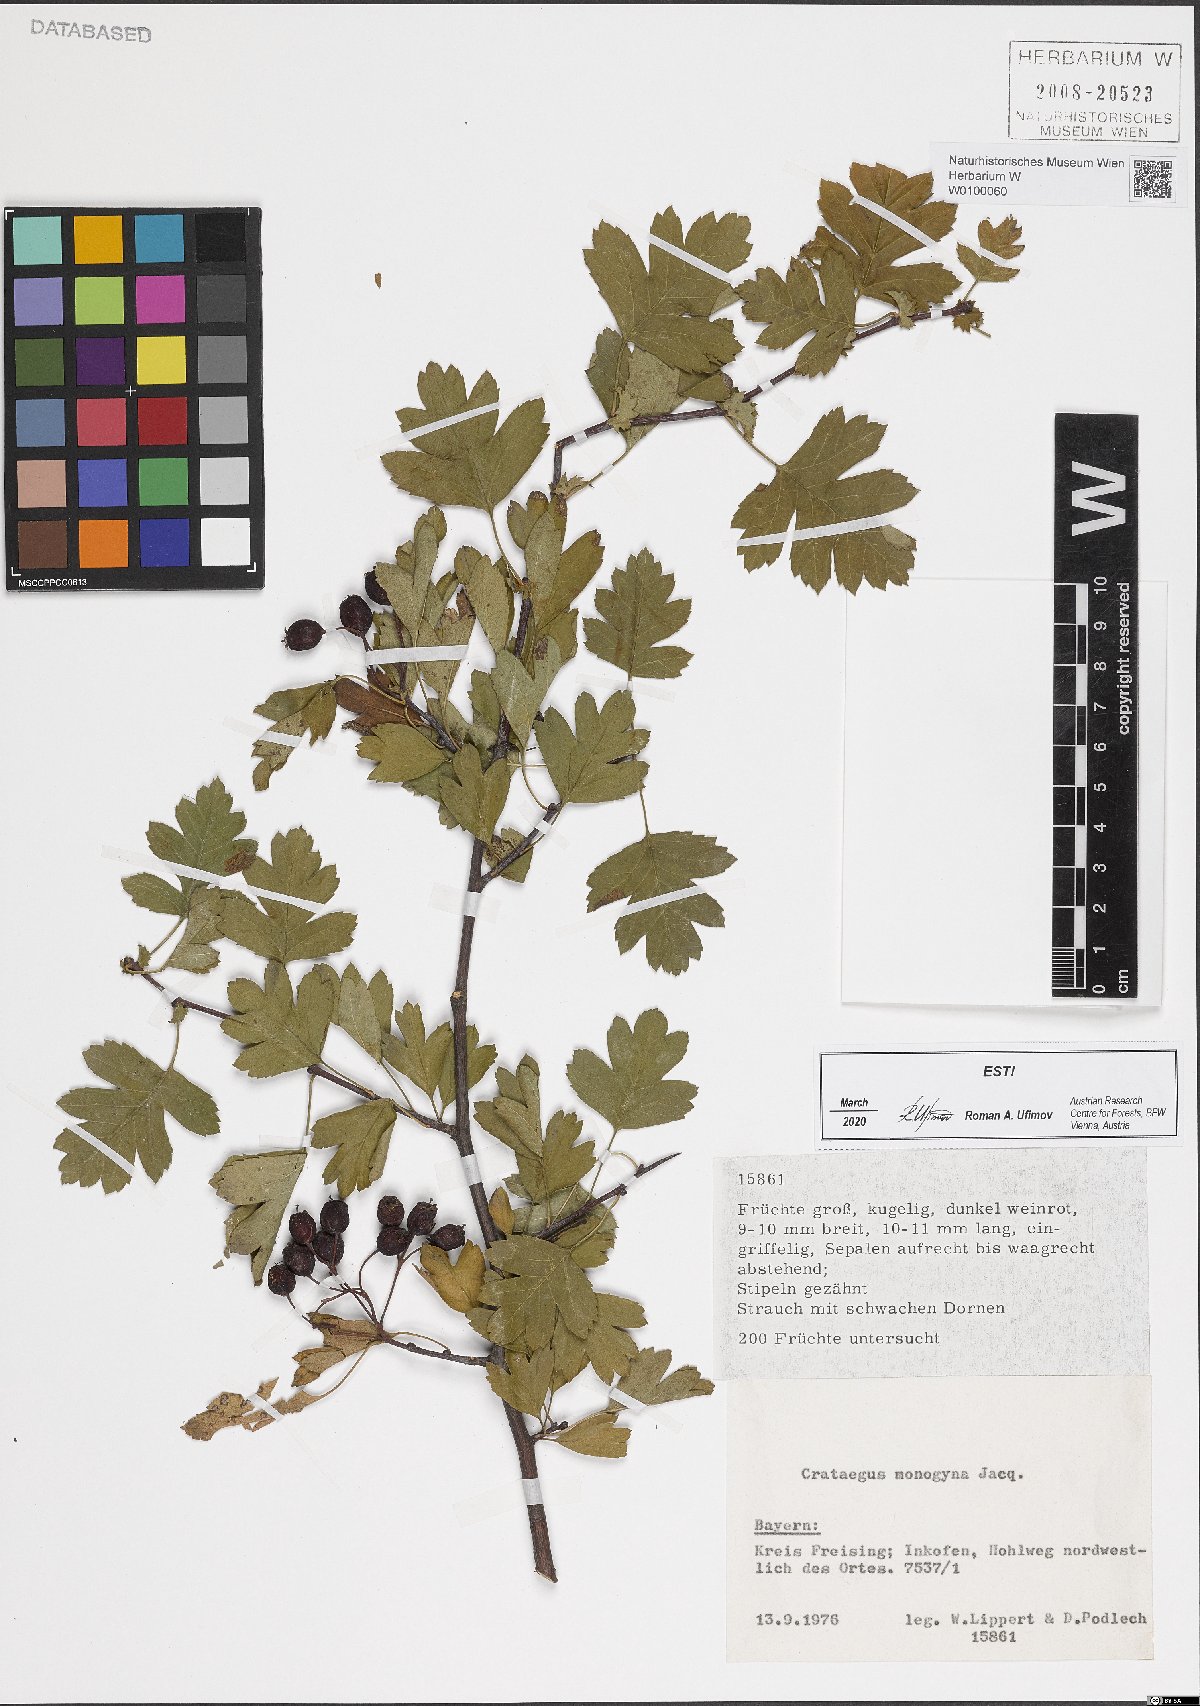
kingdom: Plantae
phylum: Tracheophyta
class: Magnoliopsida
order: Rosales
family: Rosaceae
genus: Crataegus
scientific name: Crataegus monogyna
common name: Hawthorn
